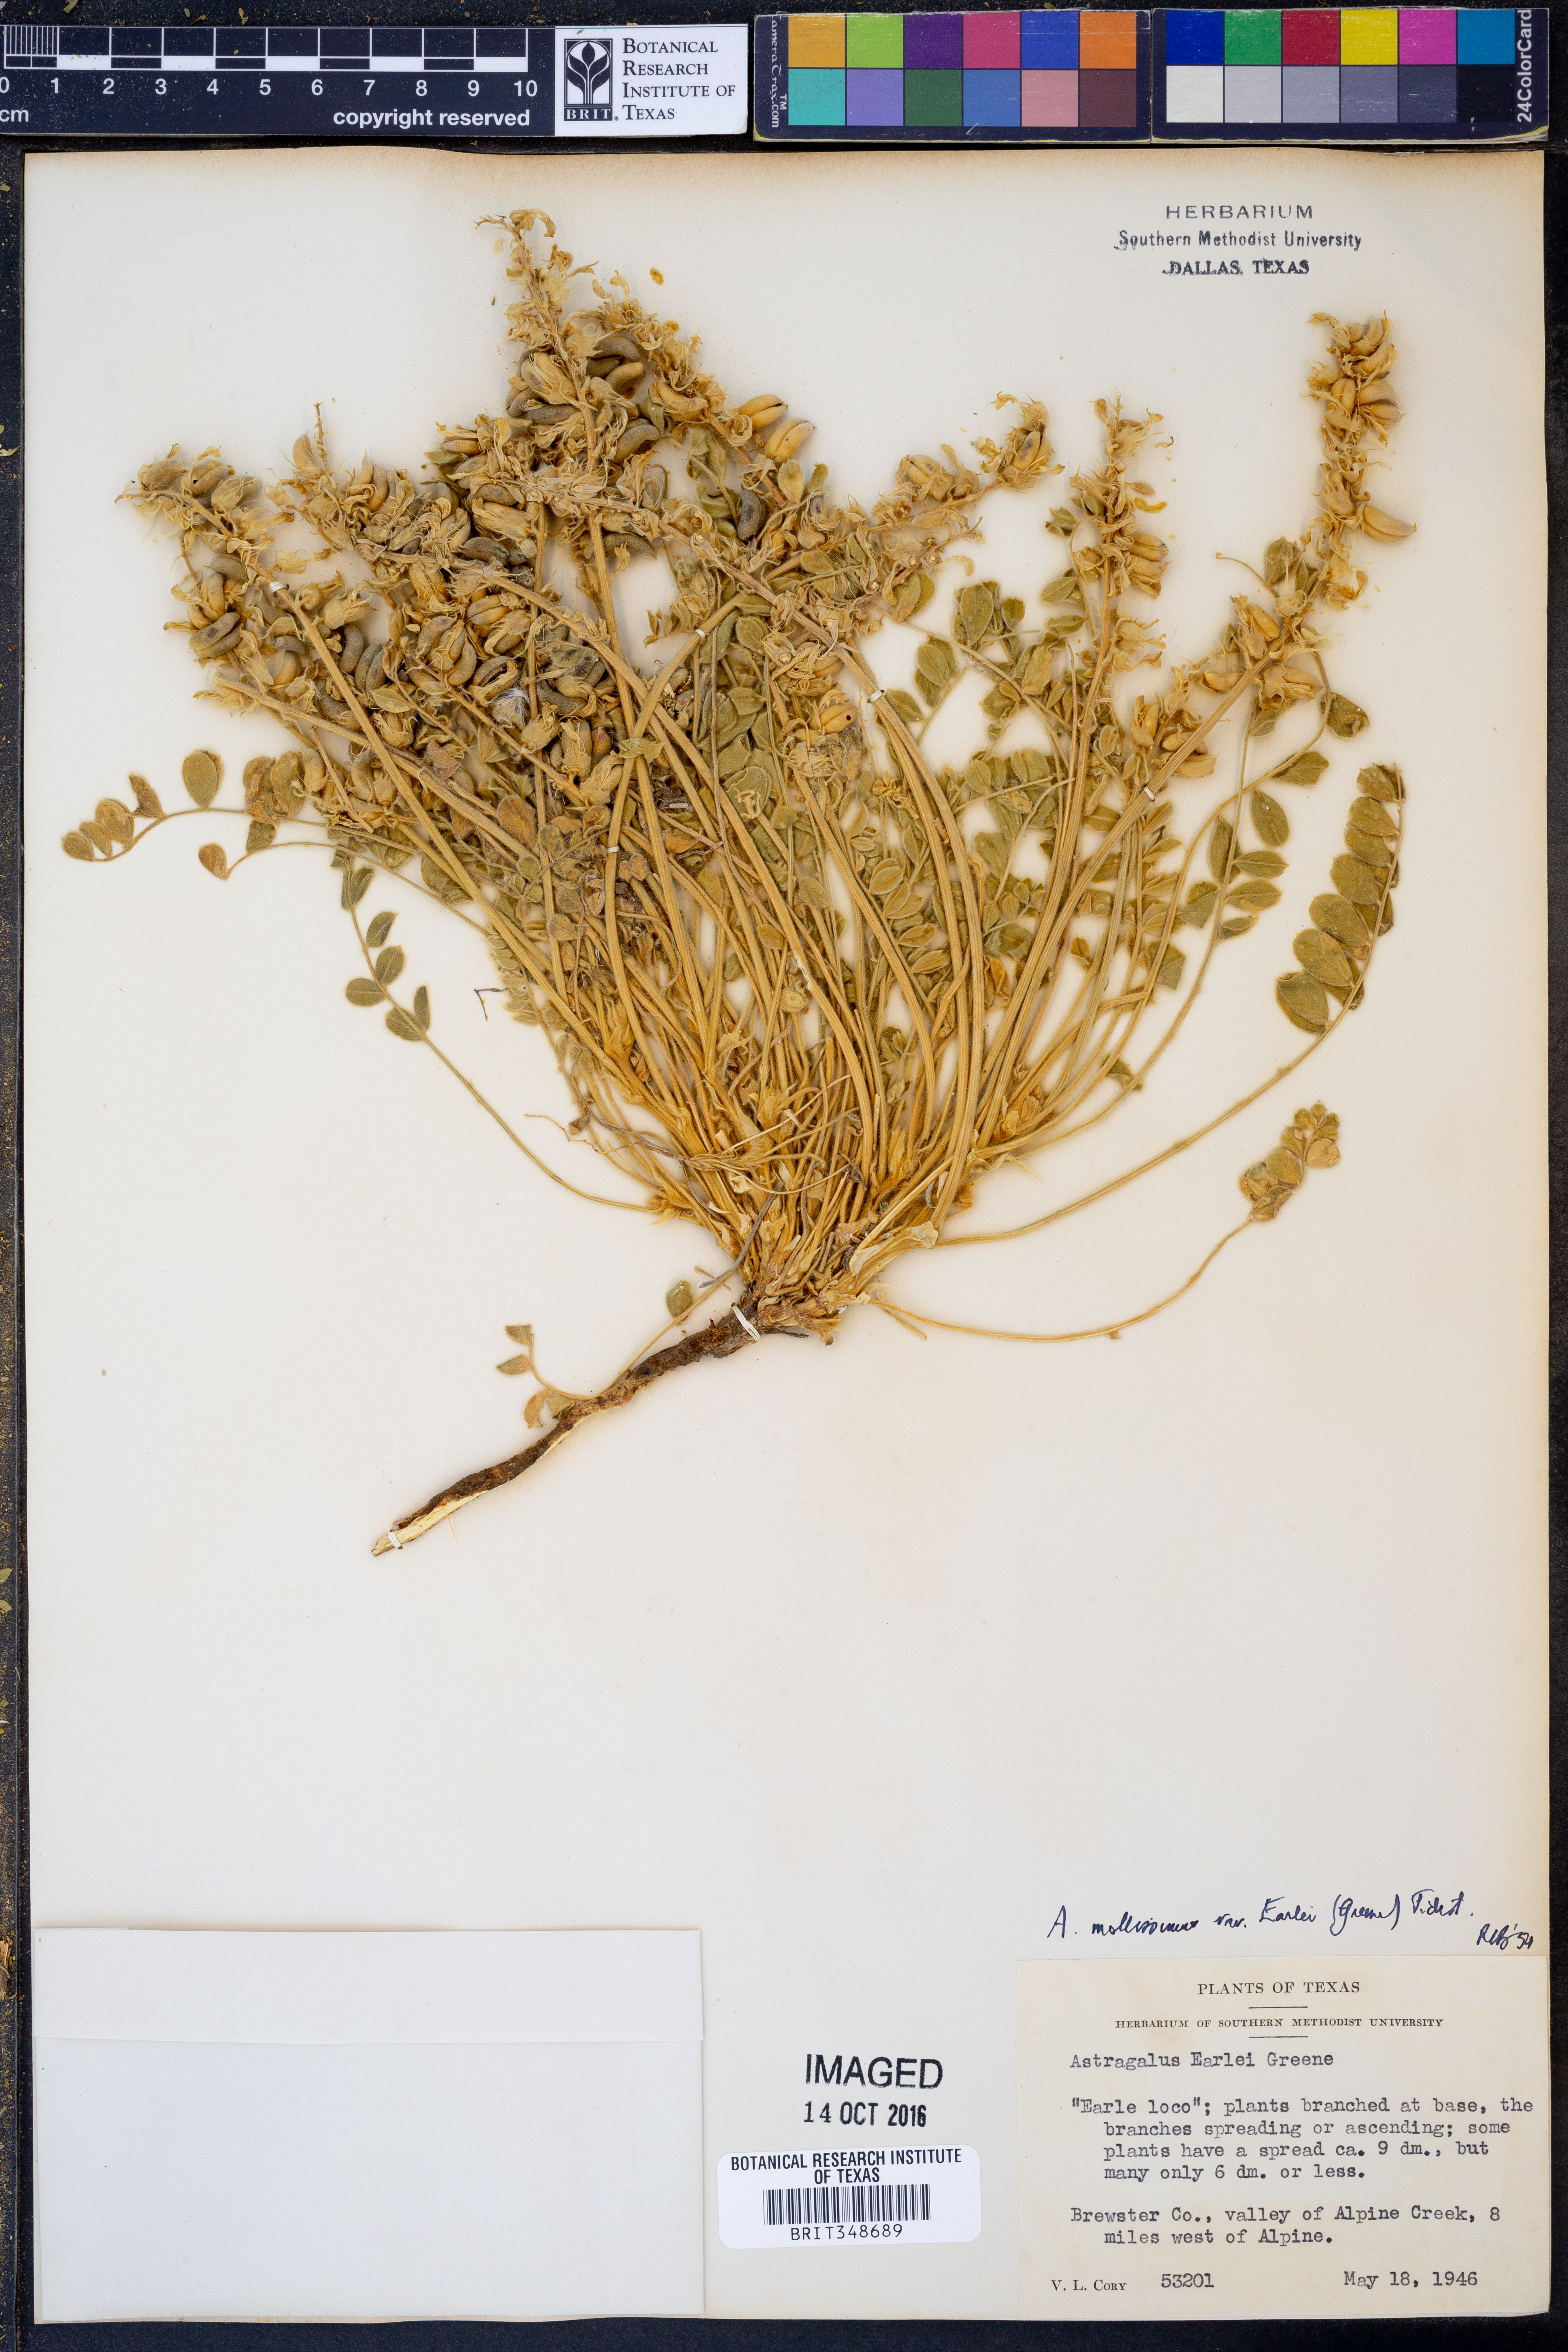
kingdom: Plantae
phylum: Tracheophyta
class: Magnoliopsida
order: Fabales
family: Fabaceae
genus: Astragalus
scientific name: Astragalus mollissimus
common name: Woolly locoweed
